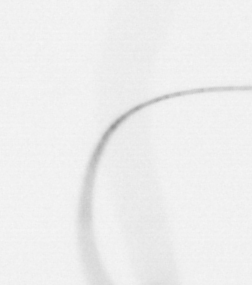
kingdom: Chromista
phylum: Ochrophyta
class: Bacillariophyceae
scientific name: Bacillariophyceae
